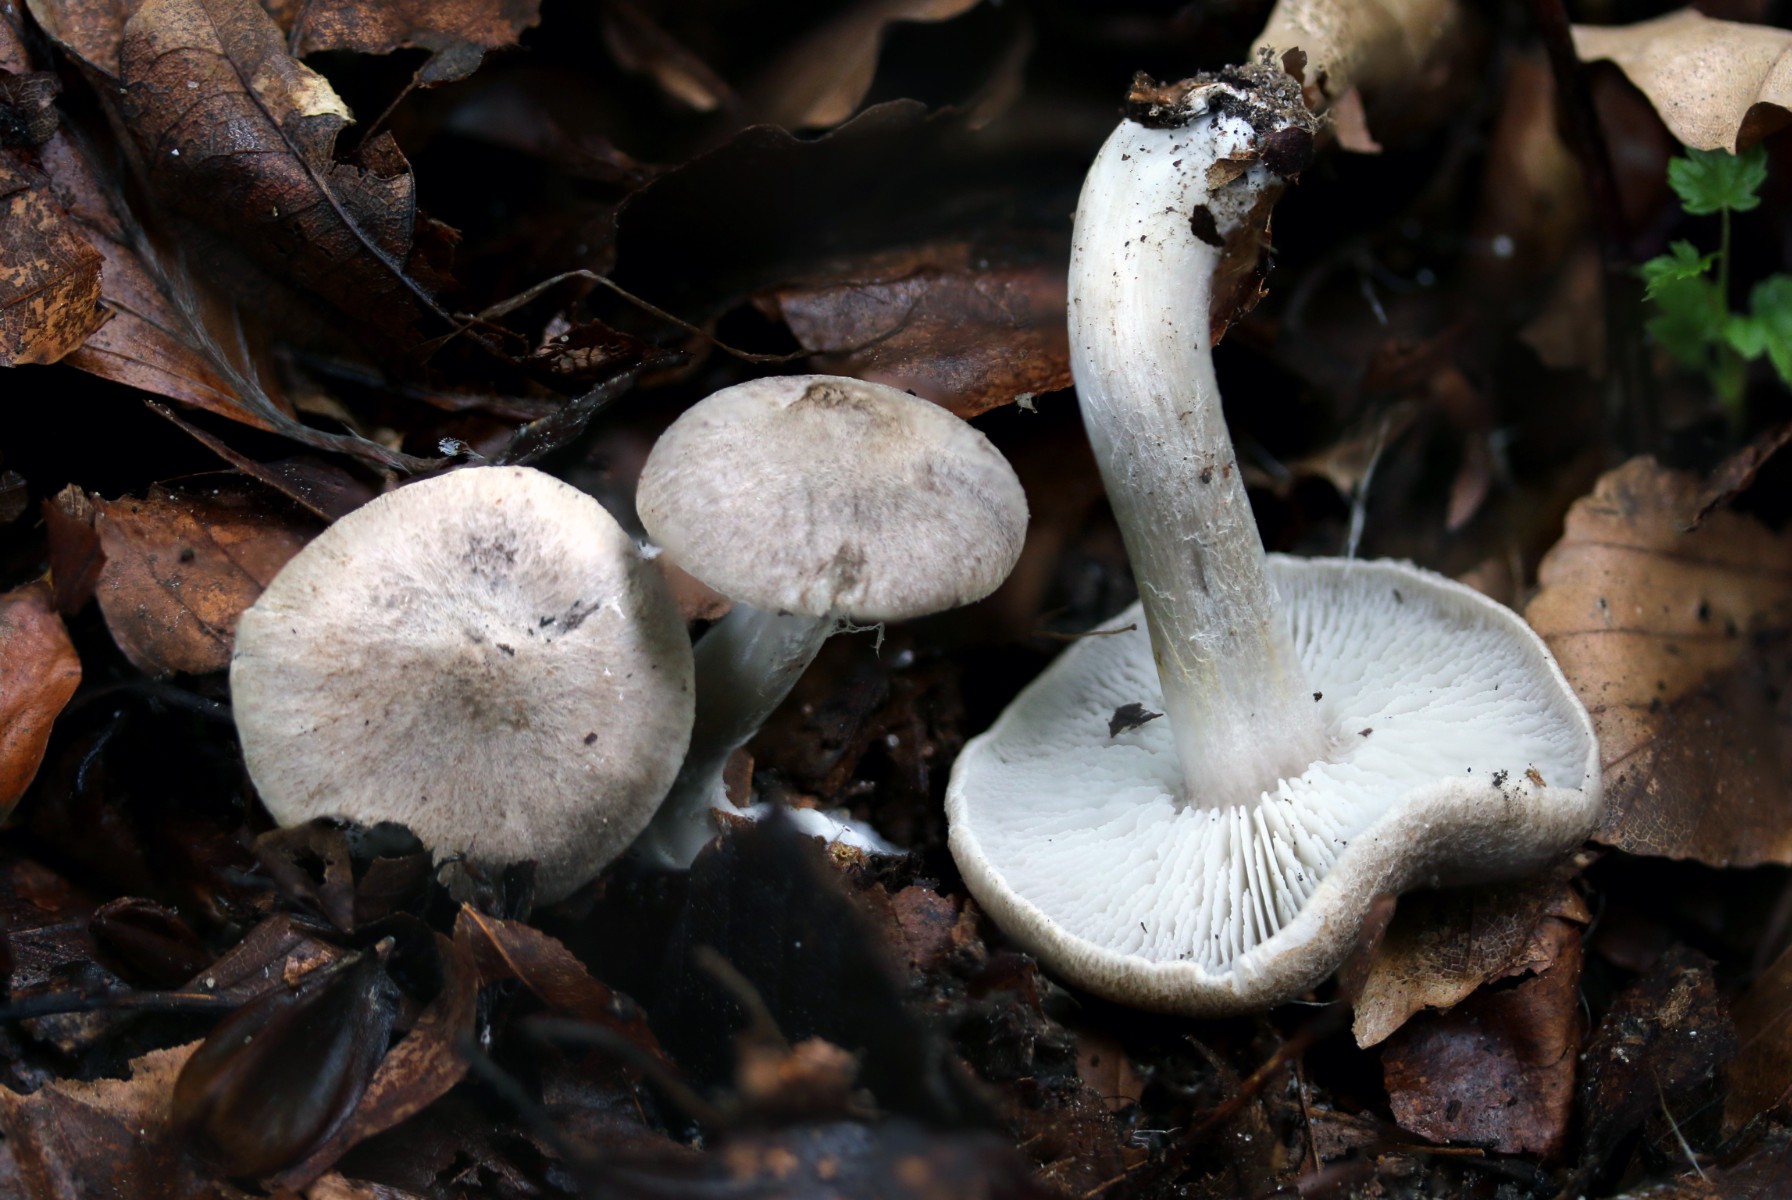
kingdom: Fungi
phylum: Basidiomycota
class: Agaricomycetes
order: Agaricales
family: Tricholomataceae
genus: Tricholoma
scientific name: Tricholoma
